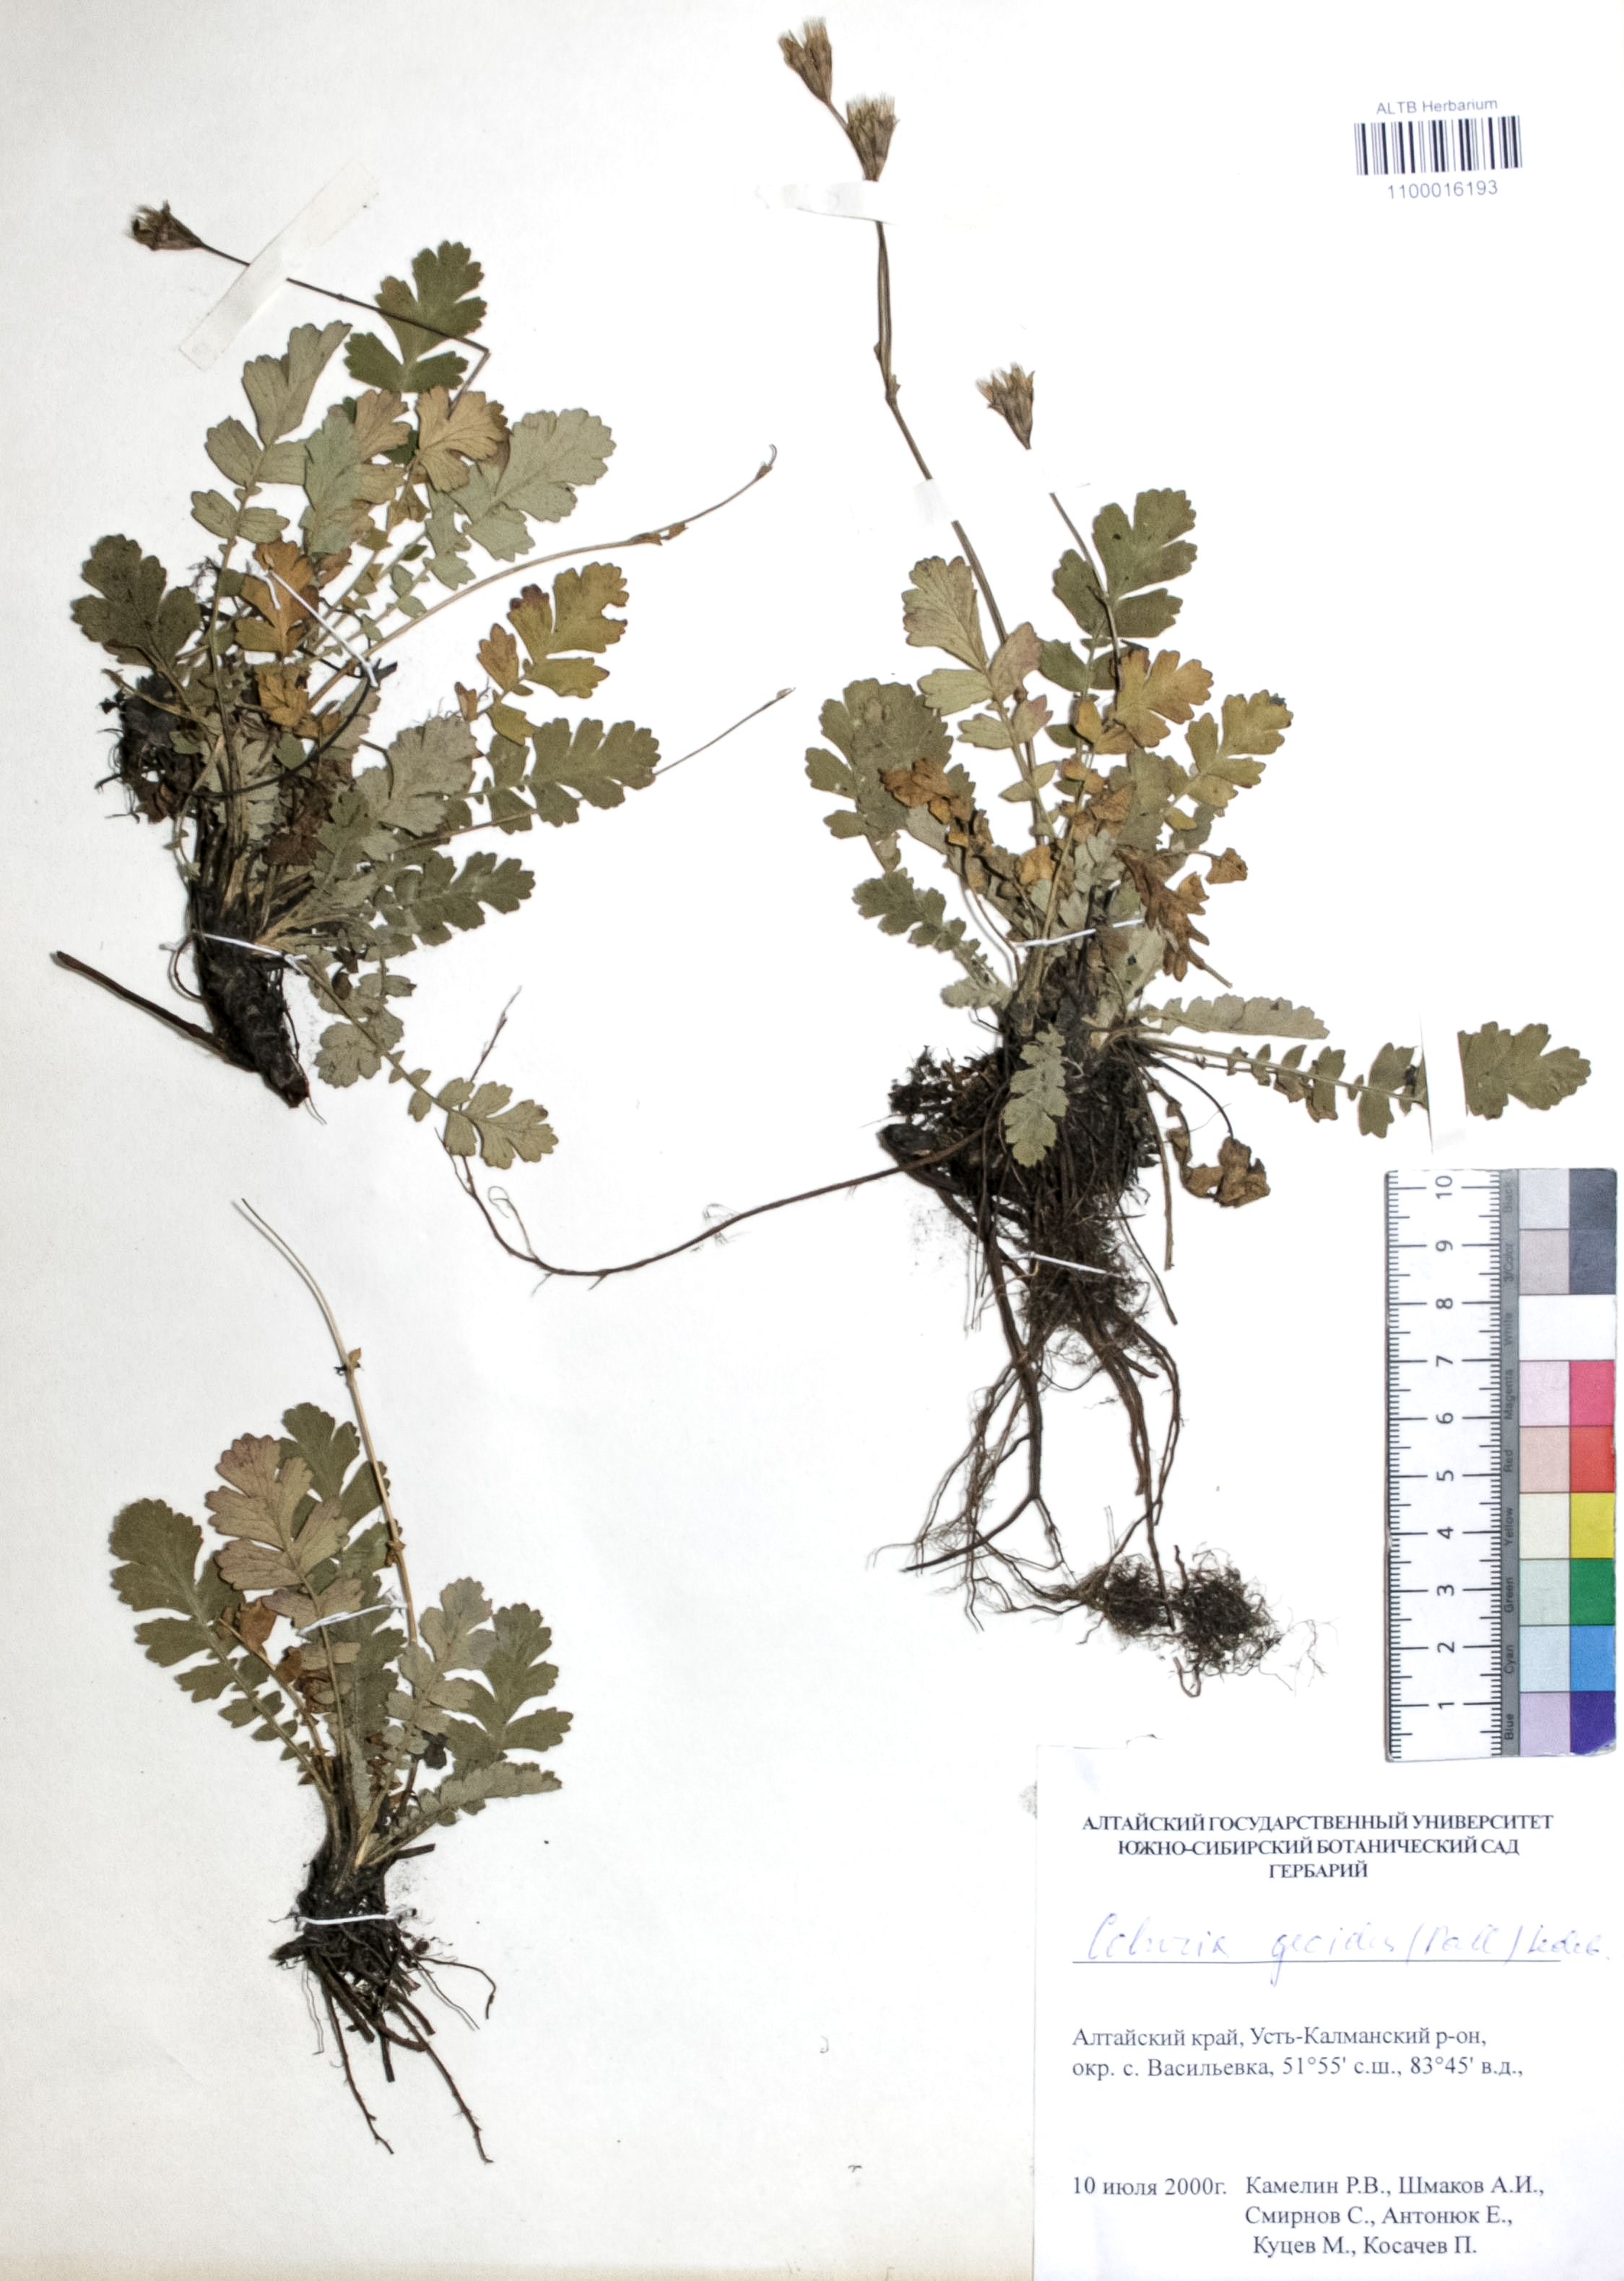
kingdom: Plantae
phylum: Tracheophyta
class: Magnoliopsida
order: Rosales
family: Rosaceae
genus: Geum
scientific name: Geum geoides
